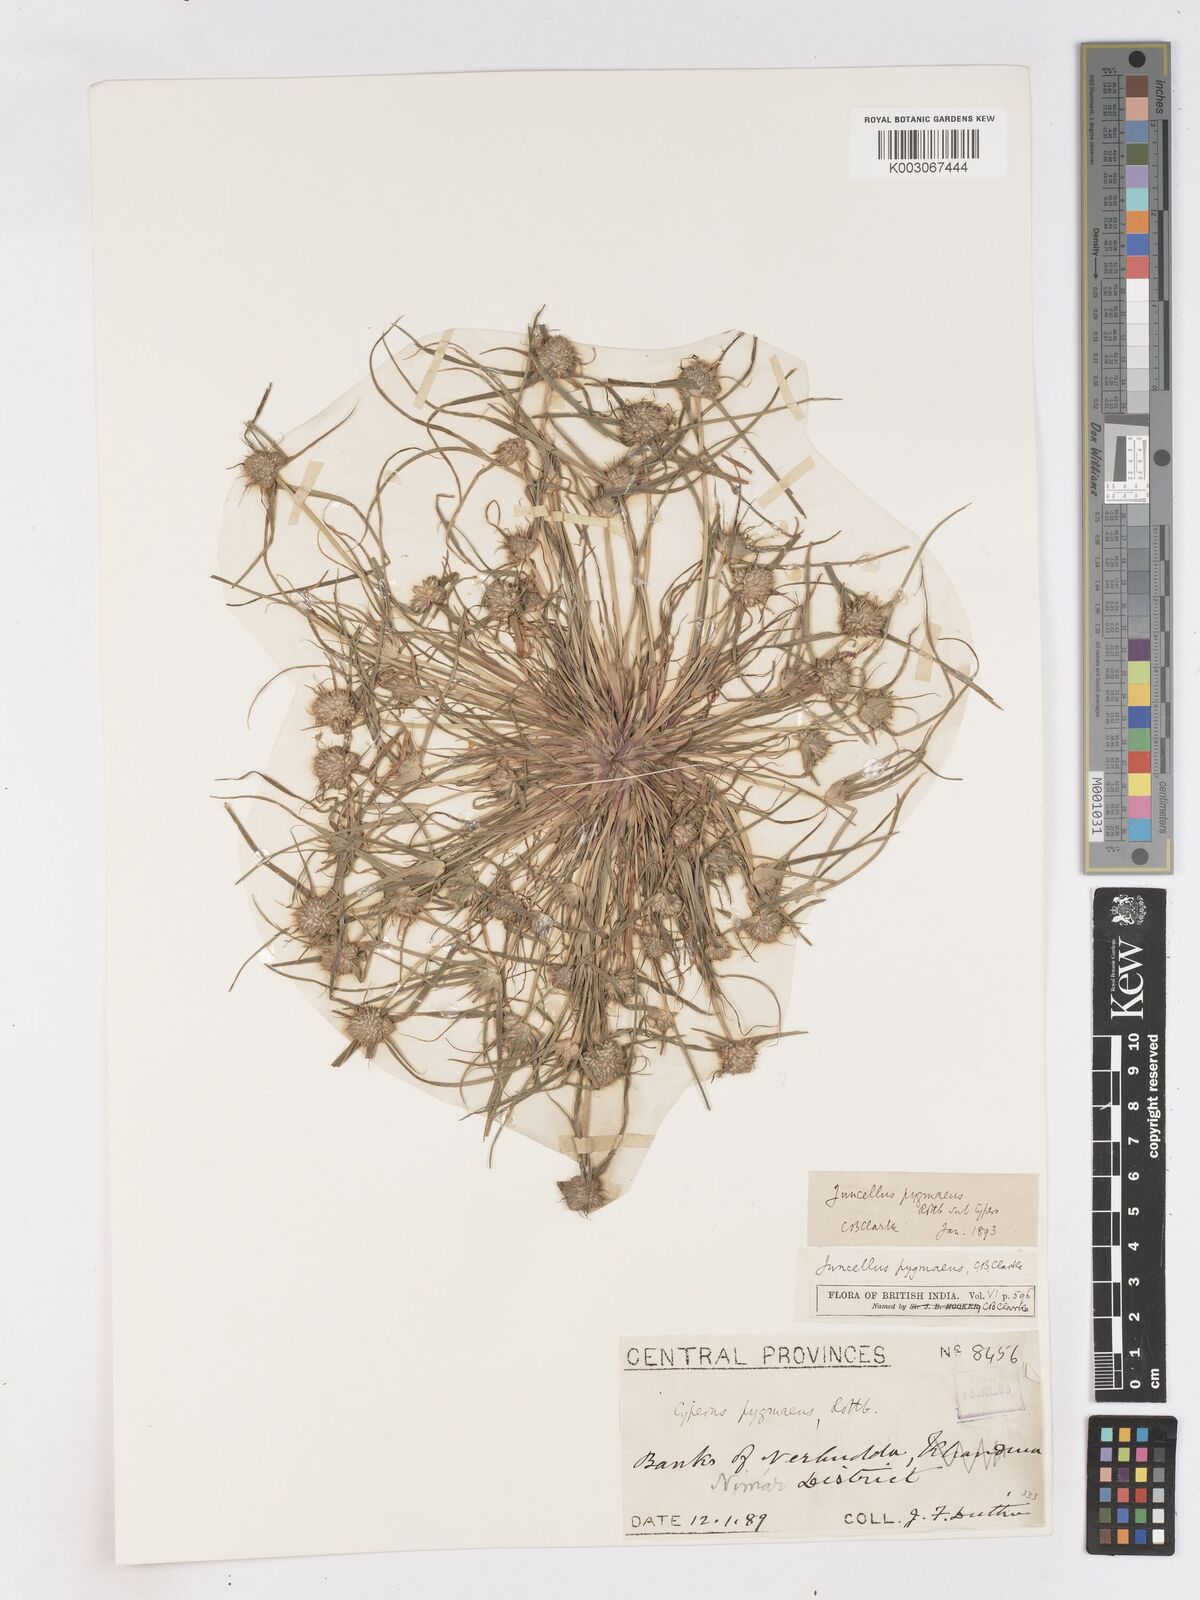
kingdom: Plantae
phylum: Tracheophyta
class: Liliopsida
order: Poales
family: Cyperaceae
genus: Cyperus
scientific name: Cyperus michelianus
